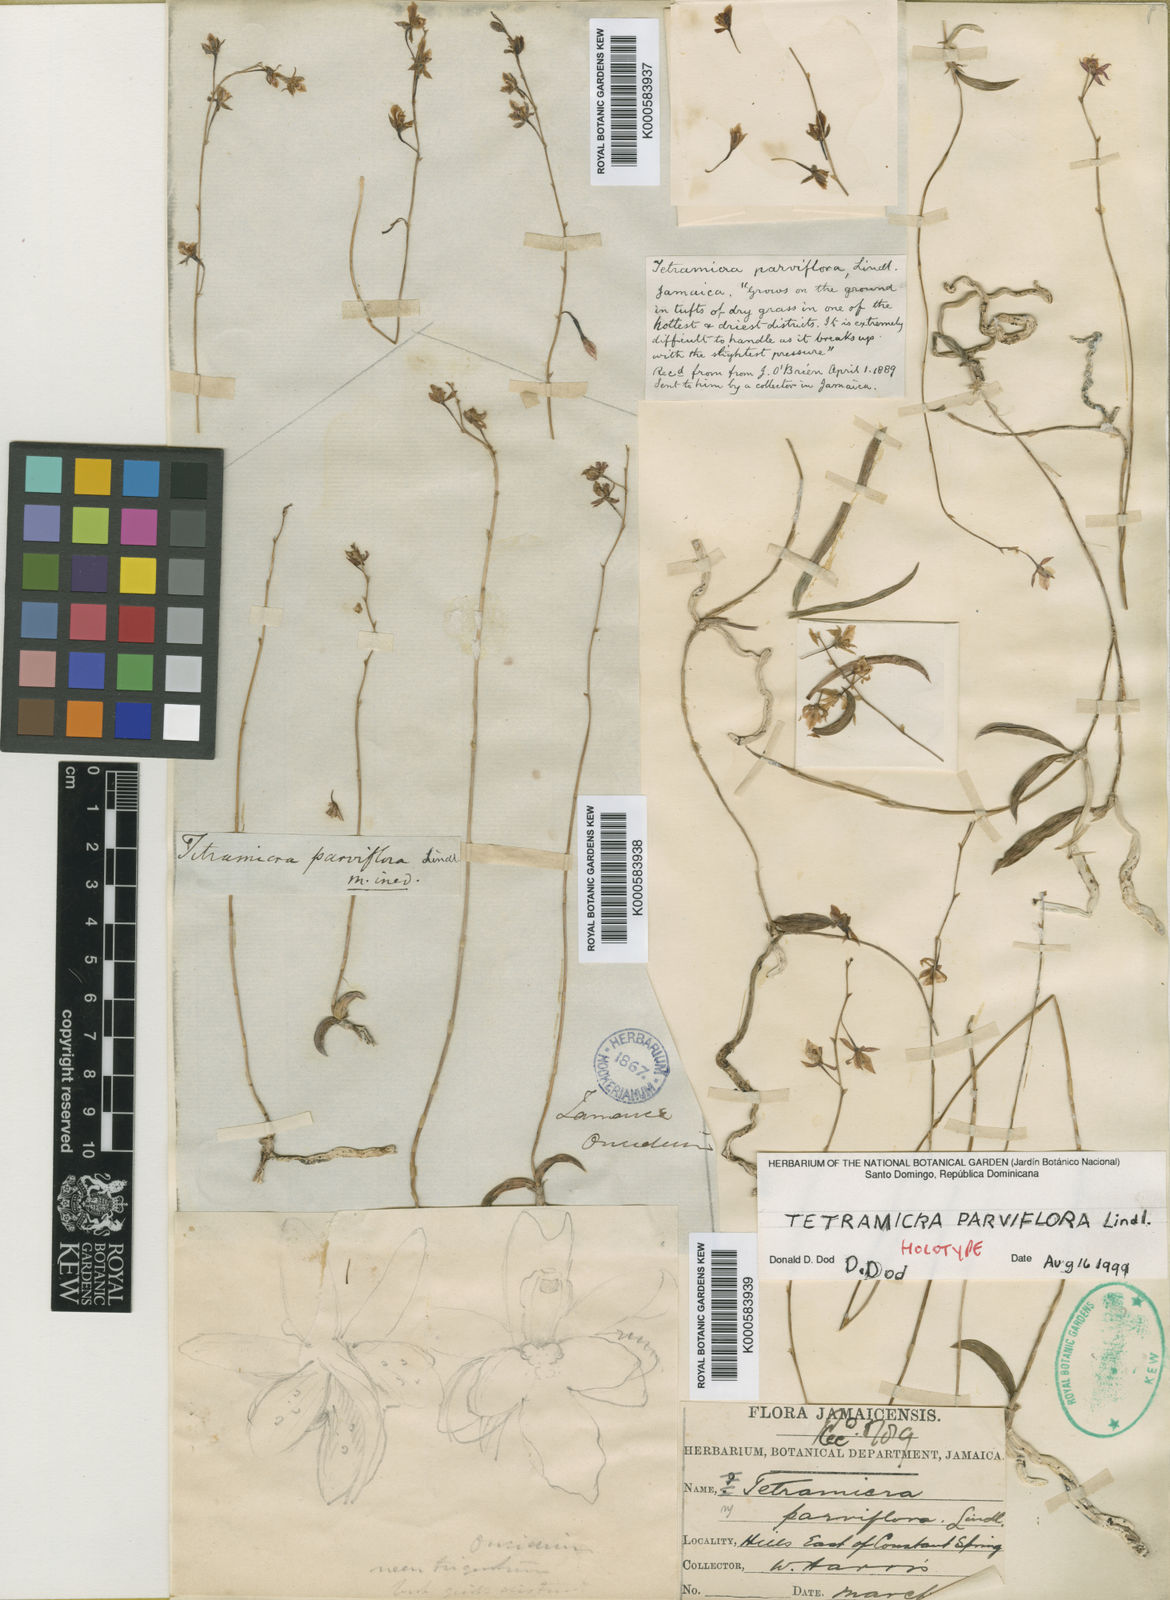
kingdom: Plantae
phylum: Tracheophyta
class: Liliopsida
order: Asparagales
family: Orchidaceae
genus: Tetramicra
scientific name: Tetramicra parviflora
